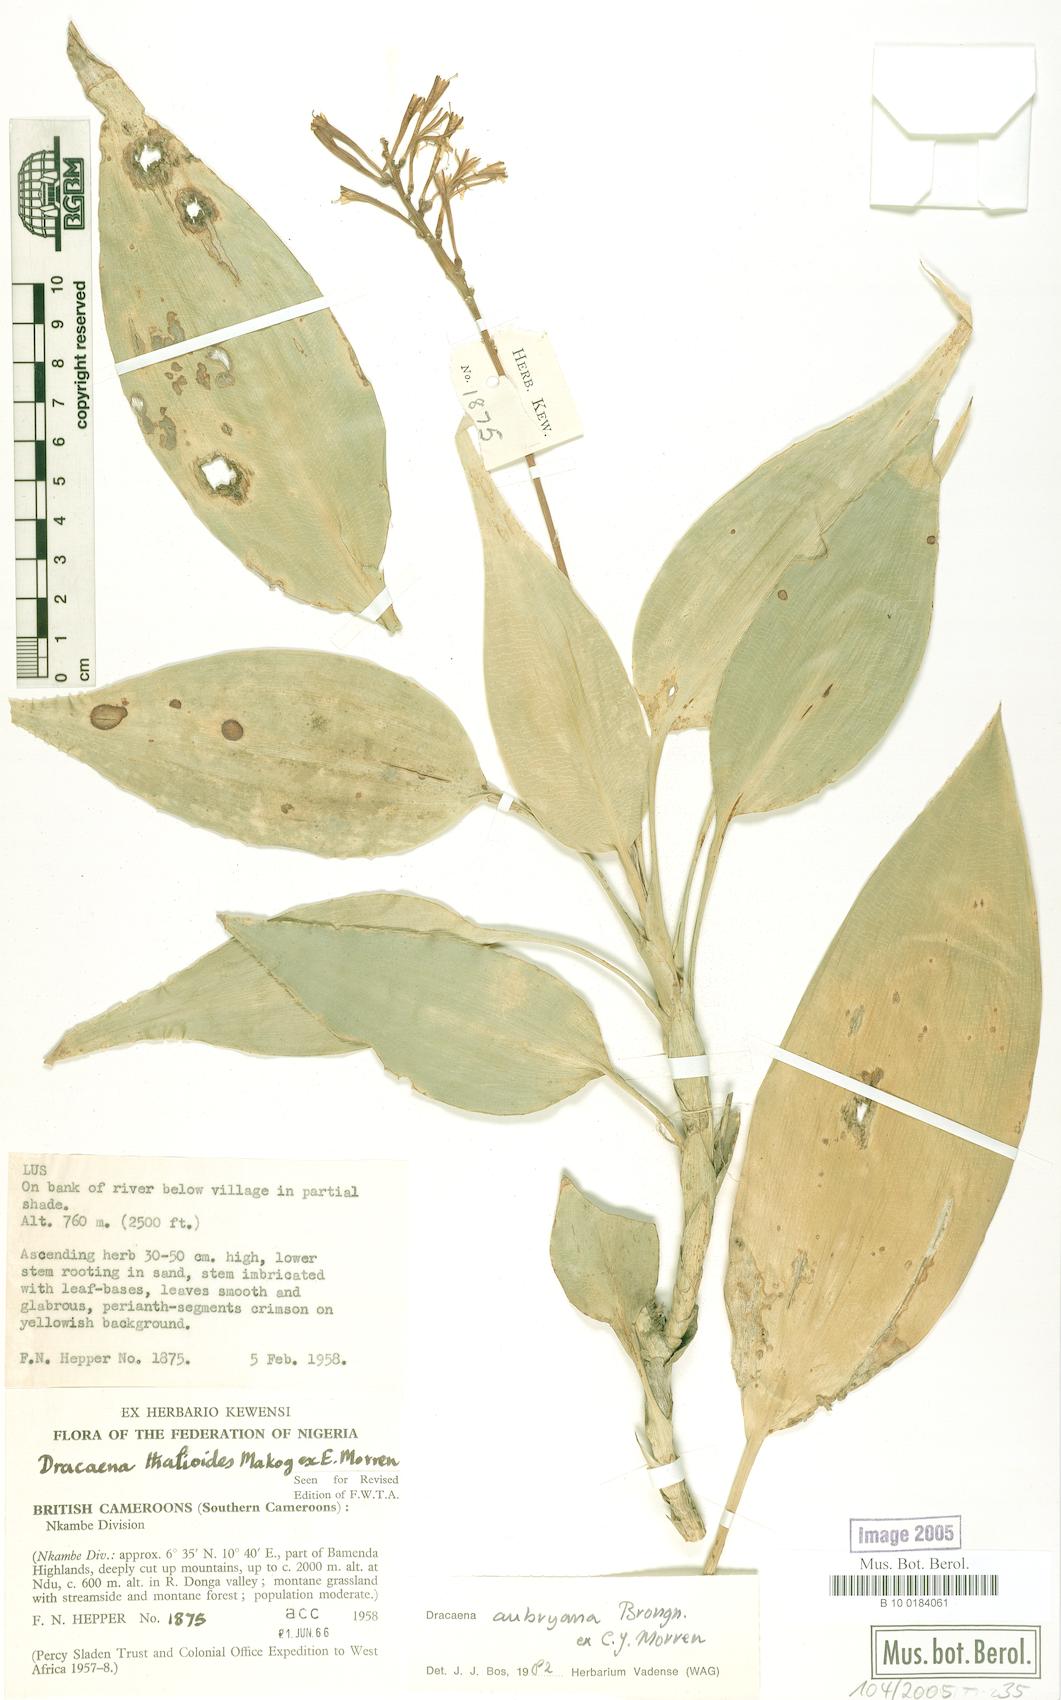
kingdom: Plantae
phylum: Tracheophyta
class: Liliopsida
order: Asparagales
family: Asparagaceae
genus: Dracaena
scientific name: Dracaena kindtiana
